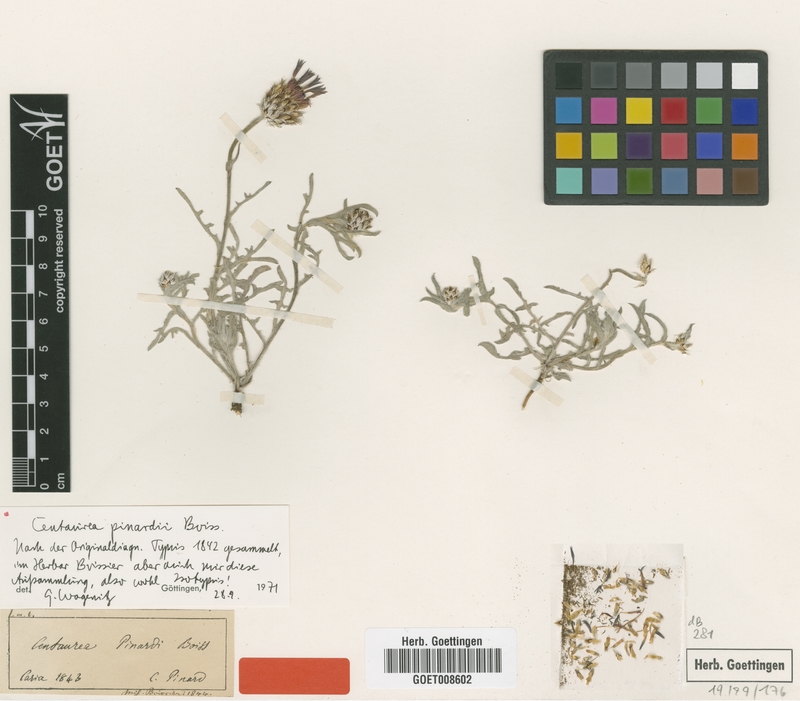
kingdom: Plantae
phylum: Tracheophyta
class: Magnoliopsida
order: Asterales
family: Asteraceae
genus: Centaurea
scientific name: Centaurea pinardii
